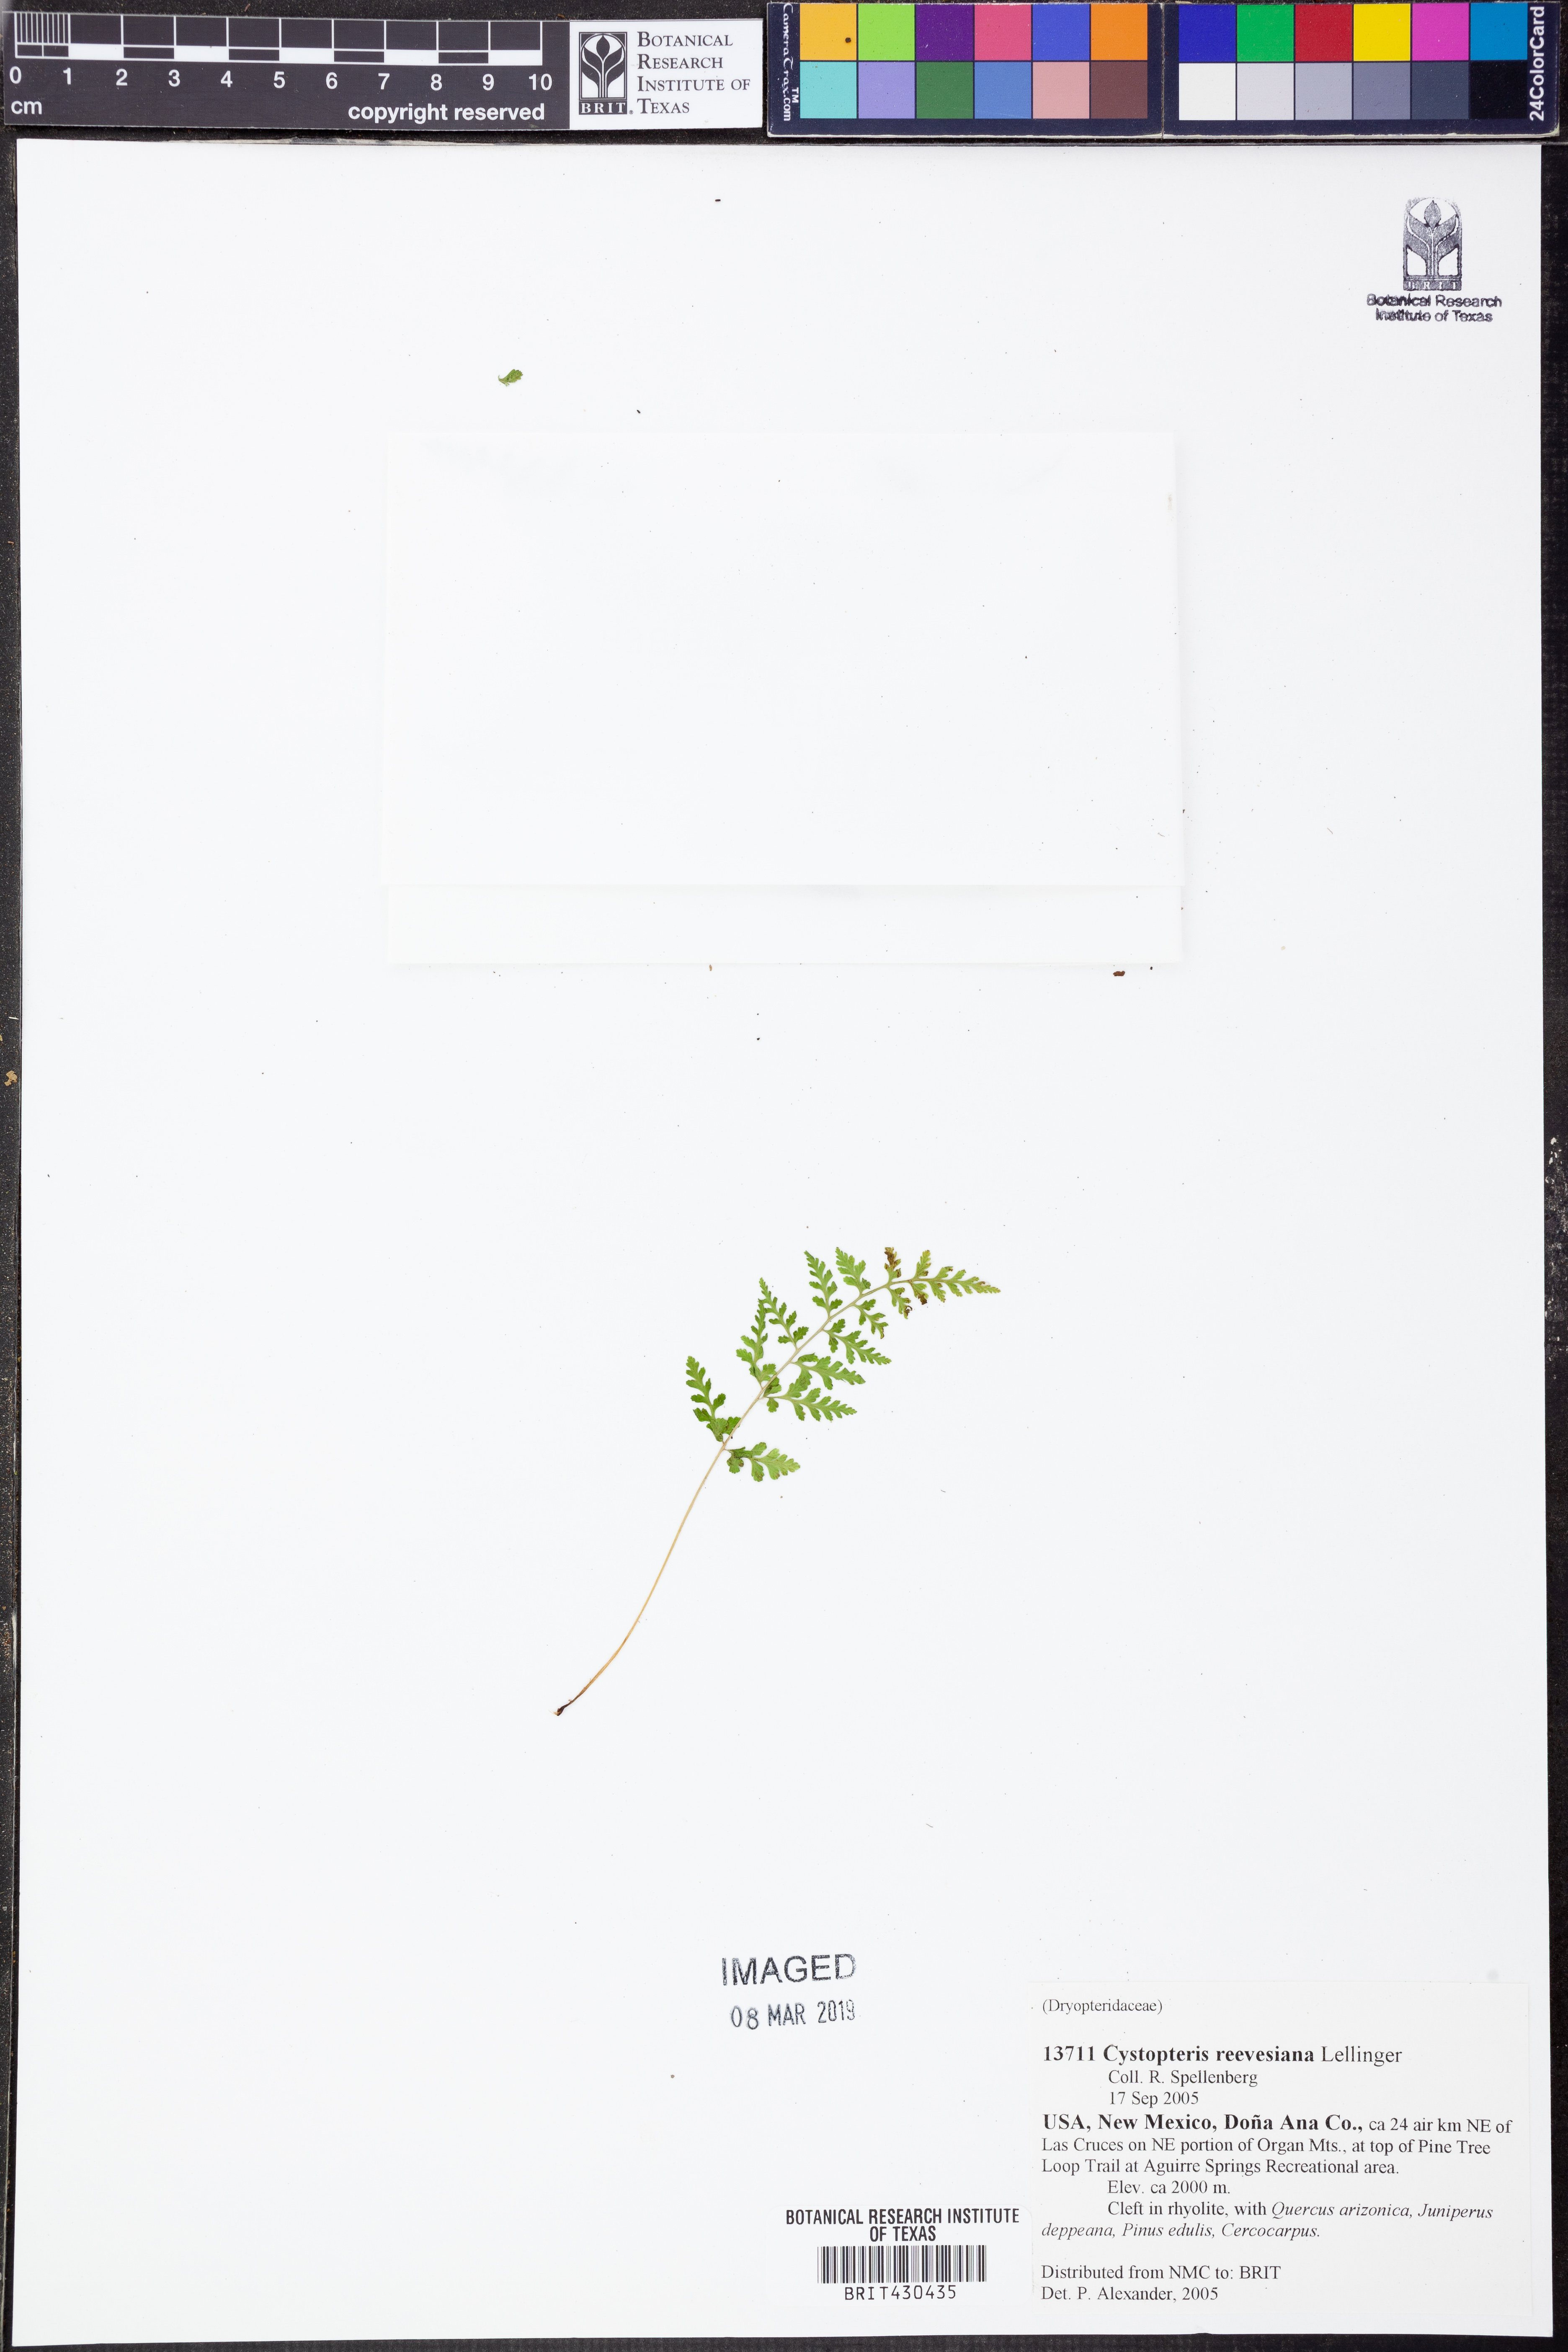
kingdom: Plantae
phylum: Tracheophyta
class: Polypodiopsida
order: Polypodiales
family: Cystopteridaceae
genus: Cystopteris
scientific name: Cystopteris reevesiana
